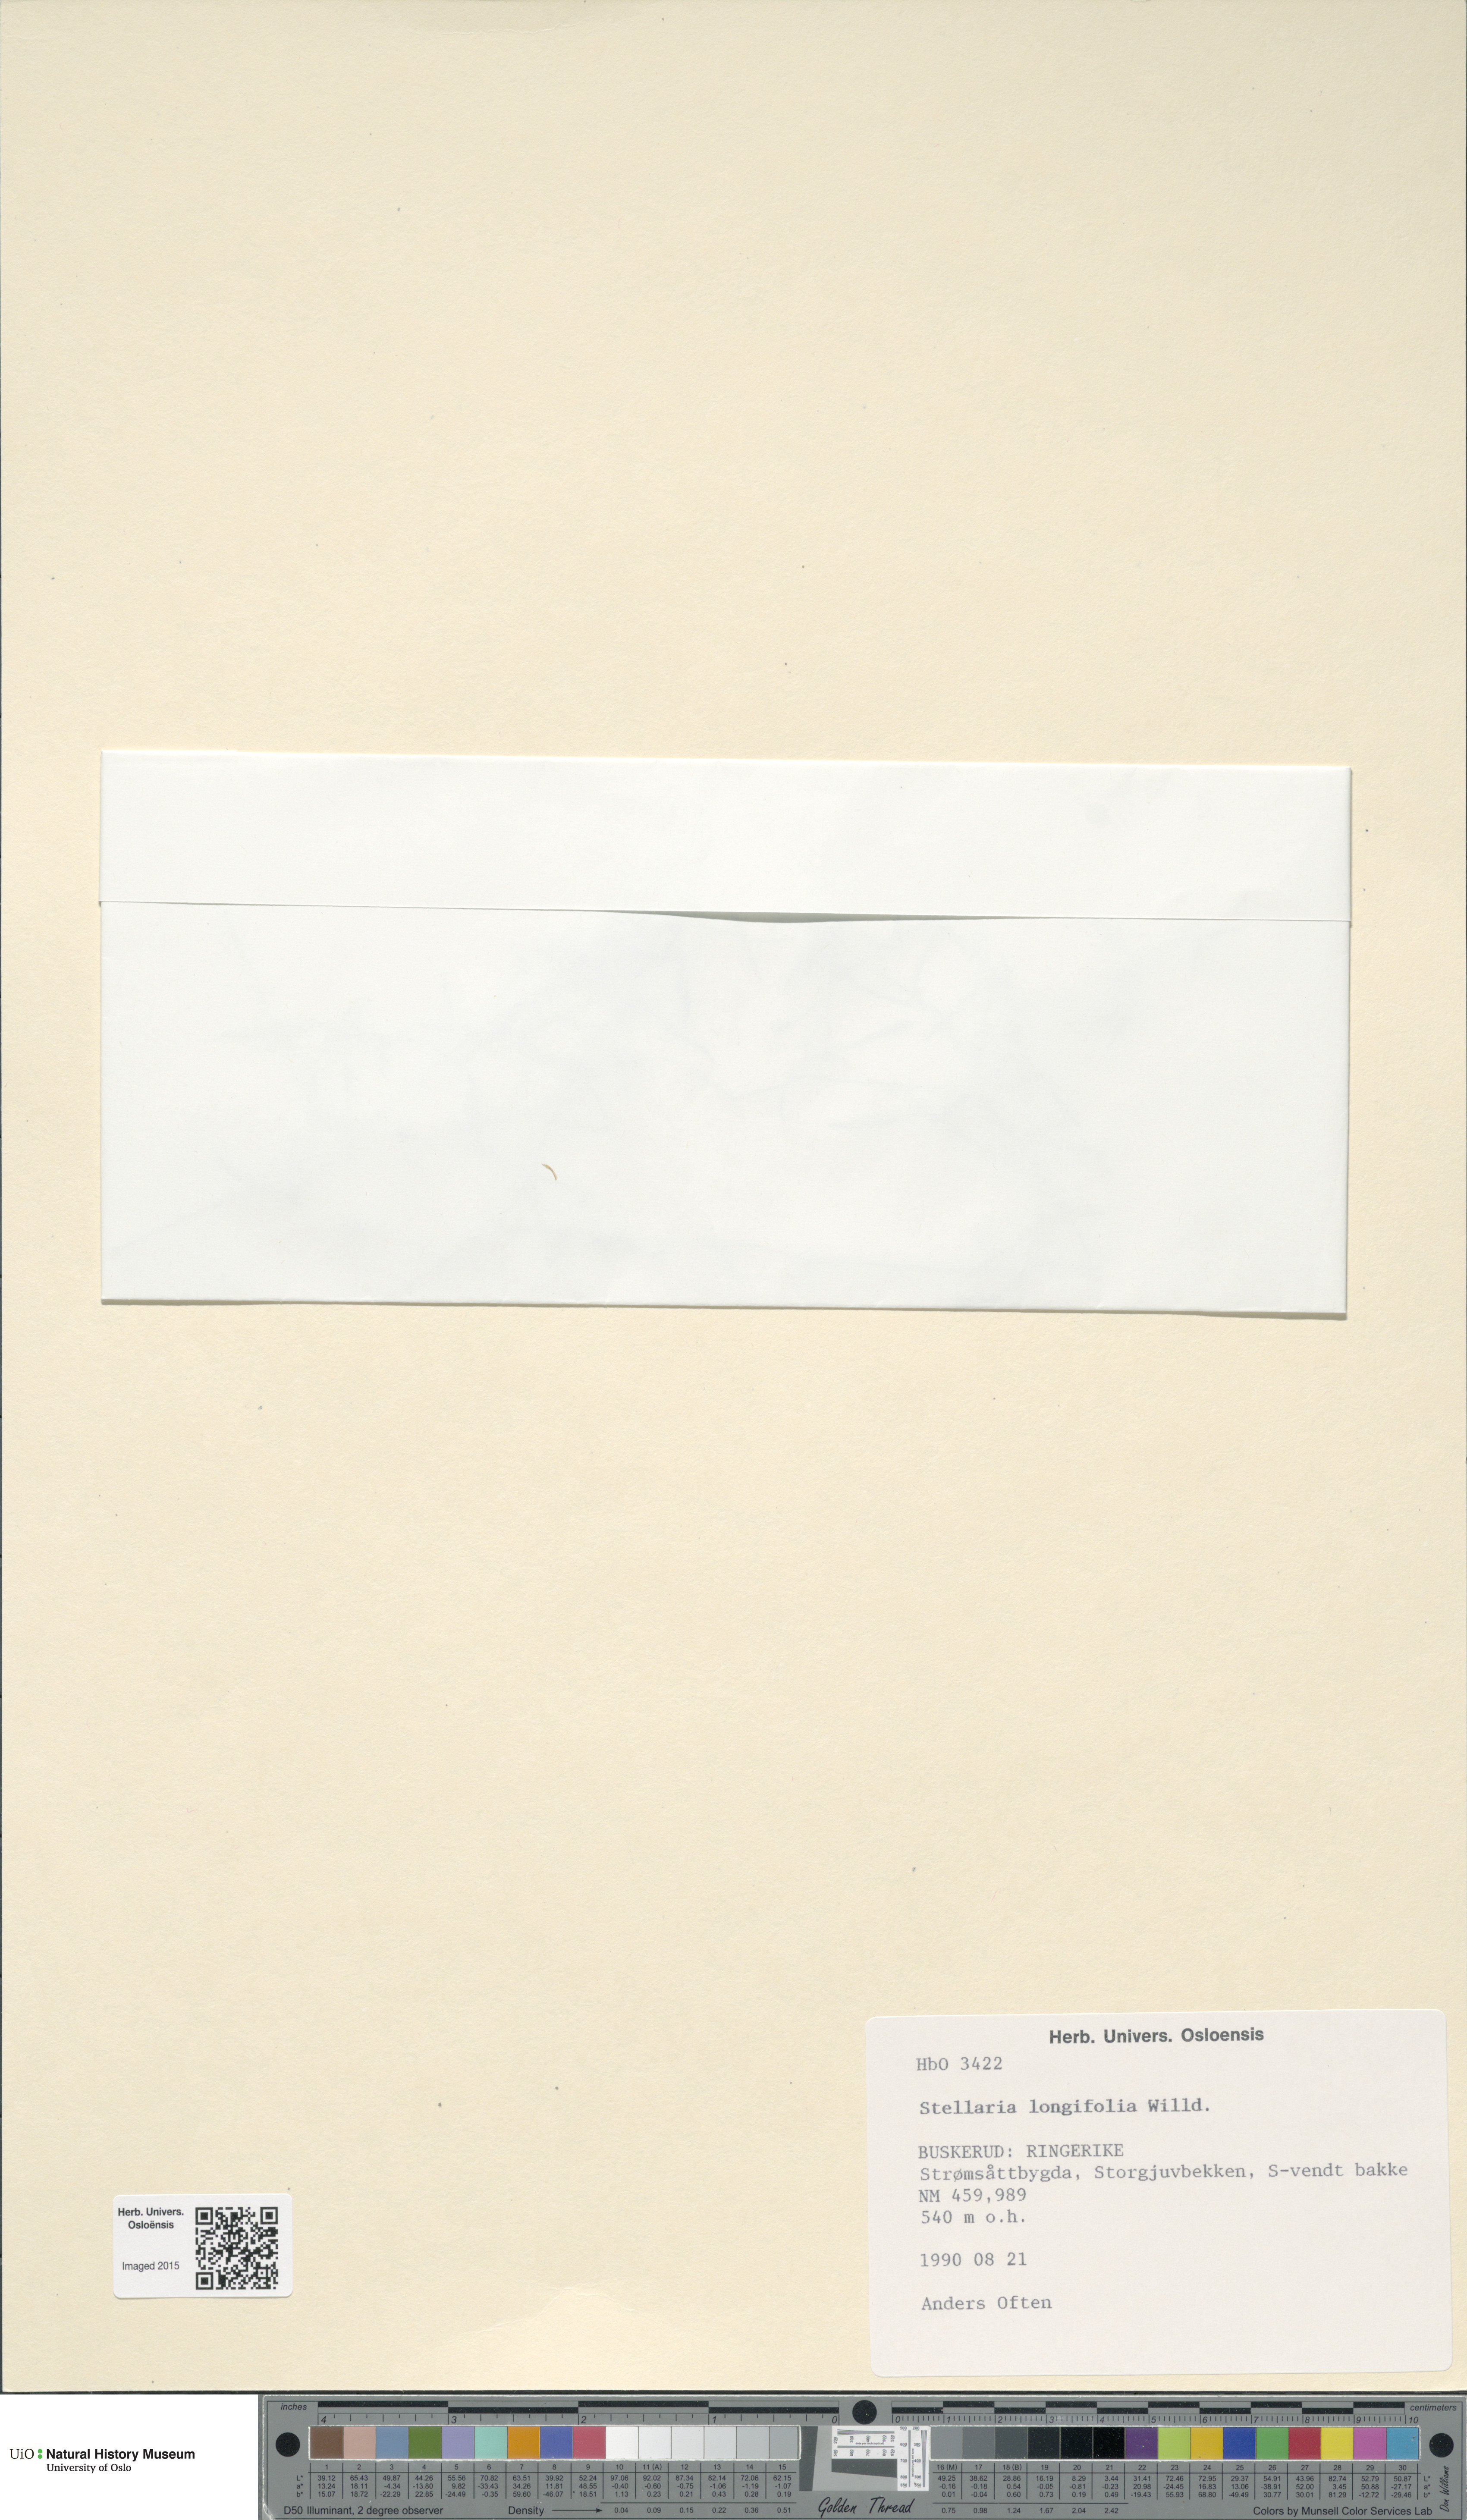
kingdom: Plantae
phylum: Tracheophyta
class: Magnoliopsida
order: Caryophyllales
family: Caryophyllaceae
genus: Stellaria
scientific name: Stellaria longifolia
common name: Long-leaved chickweed
